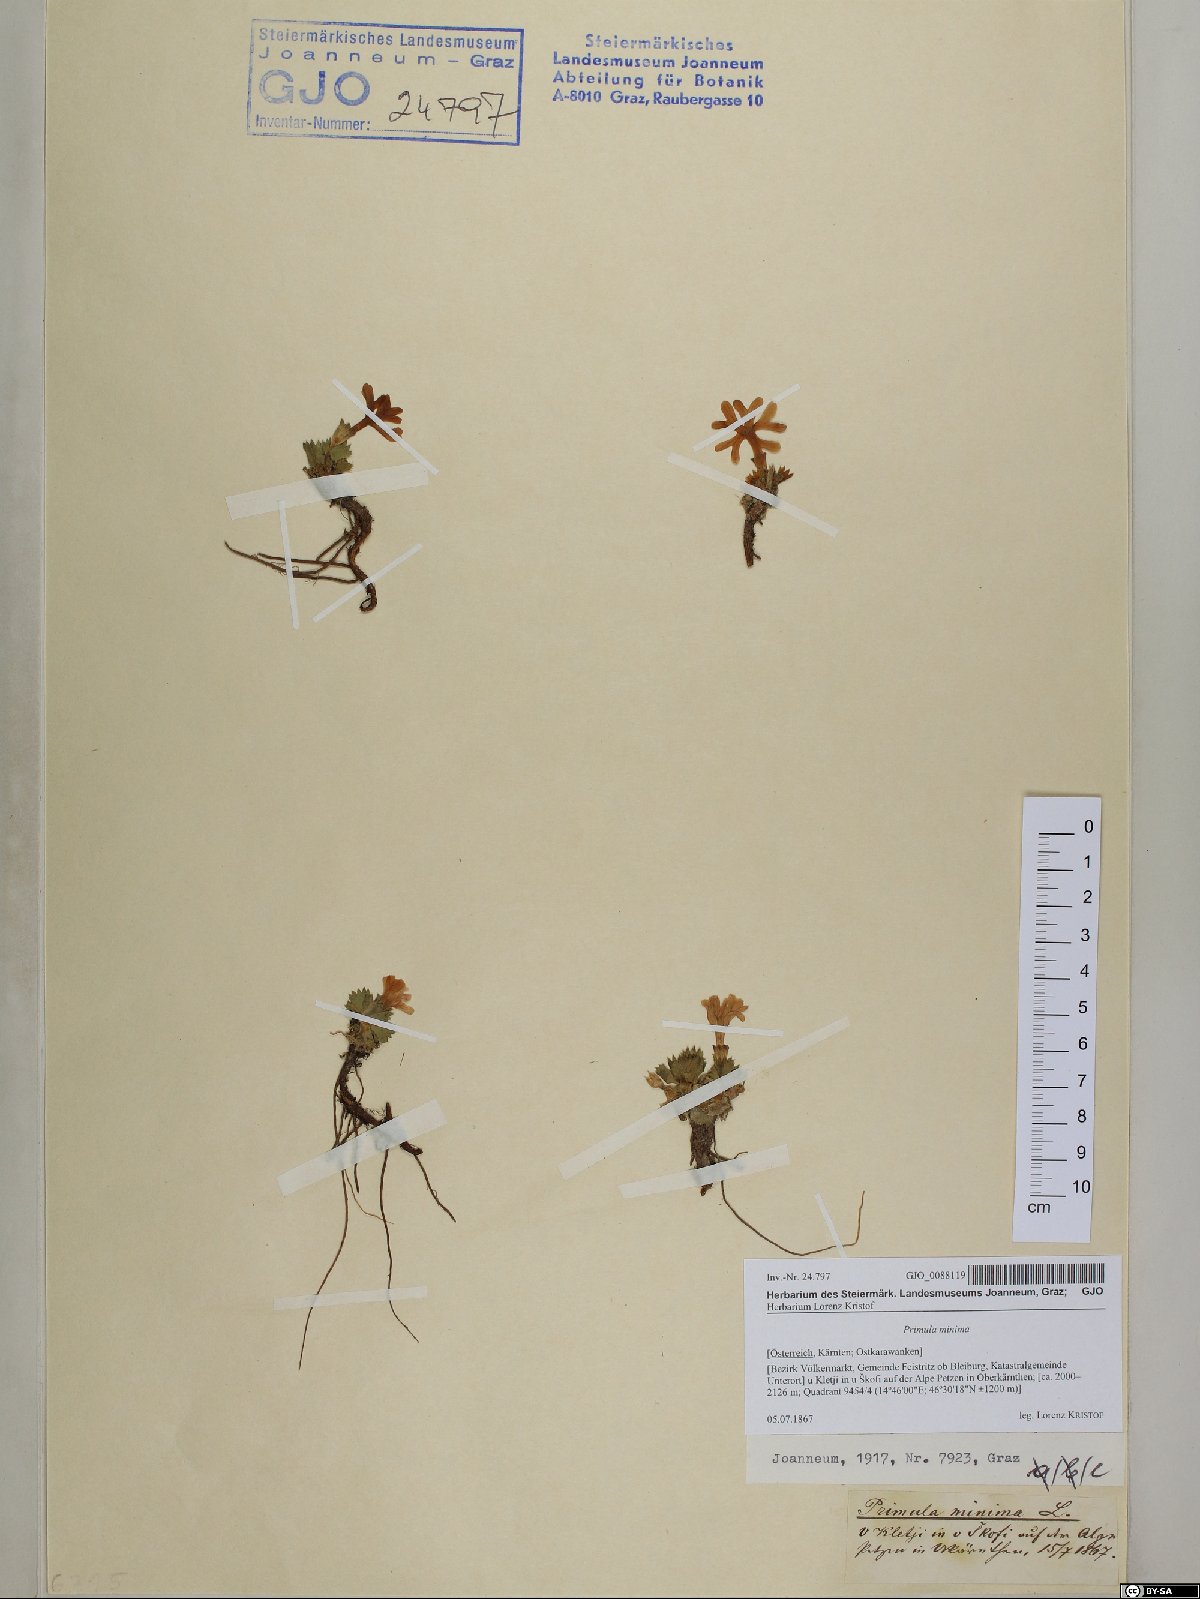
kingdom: Plantae
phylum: Tracheophyta
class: Magnoliopsida
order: Ericales
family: Primulaceae
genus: Primula
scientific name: Primula minima
